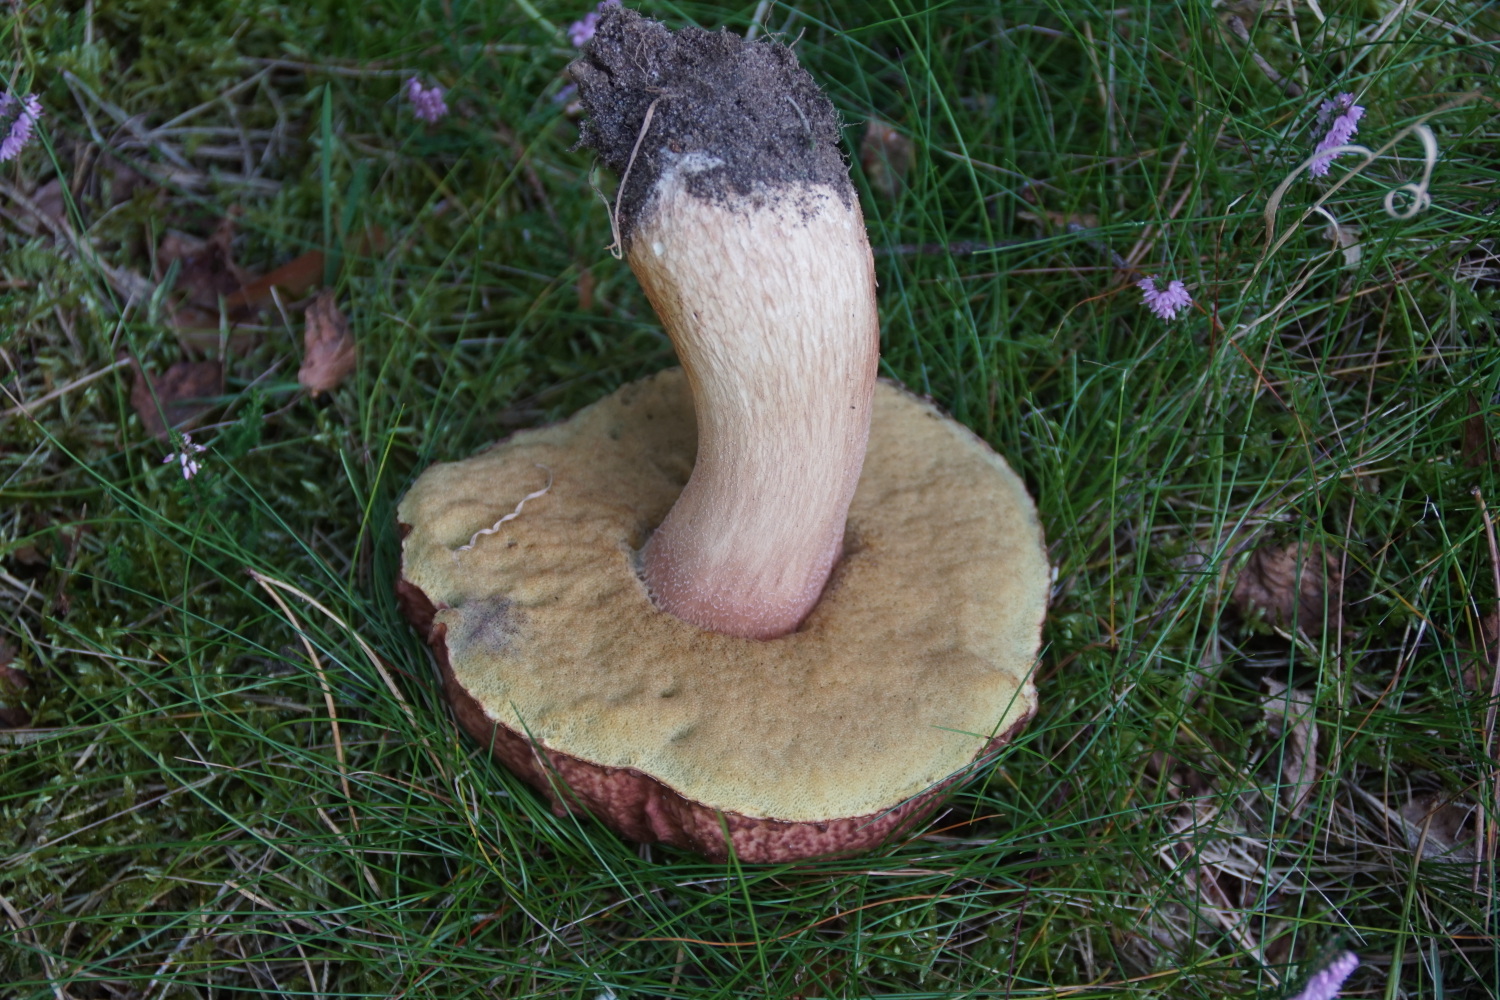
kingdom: Fungi
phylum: Basidiomycota
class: Agaricomycetes
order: Boletales
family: Boletaceae
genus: Boletus
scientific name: Boletus pinophilus
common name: rødbrun rørhat
